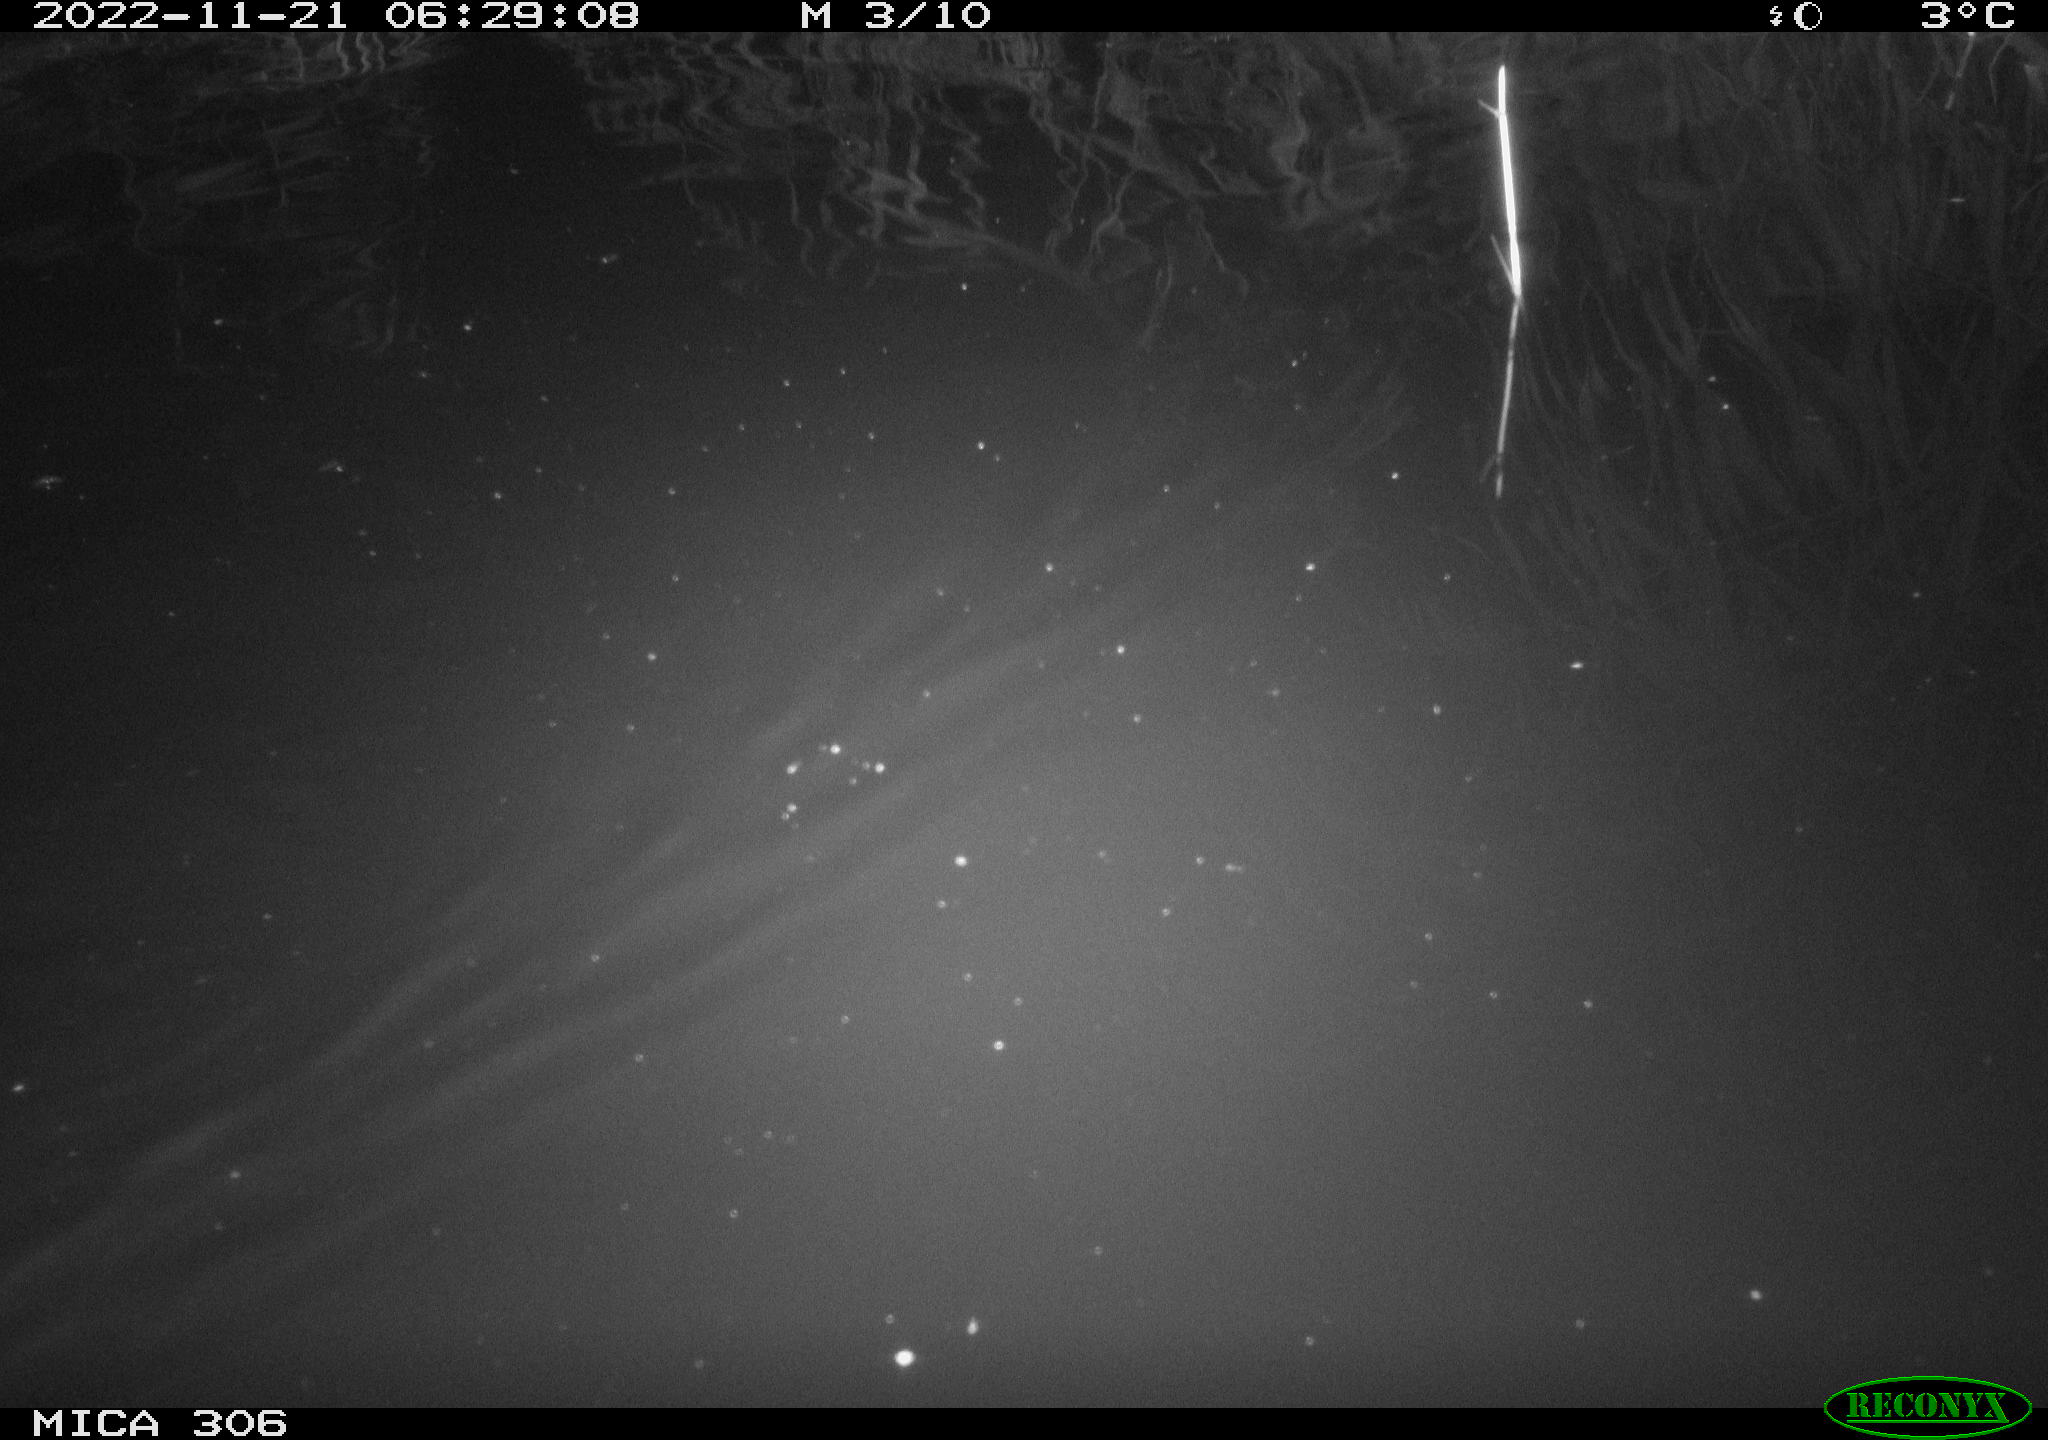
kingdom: Animalia
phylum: Chordata
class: Mammalia
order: Rodentia
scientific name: Rodentia
